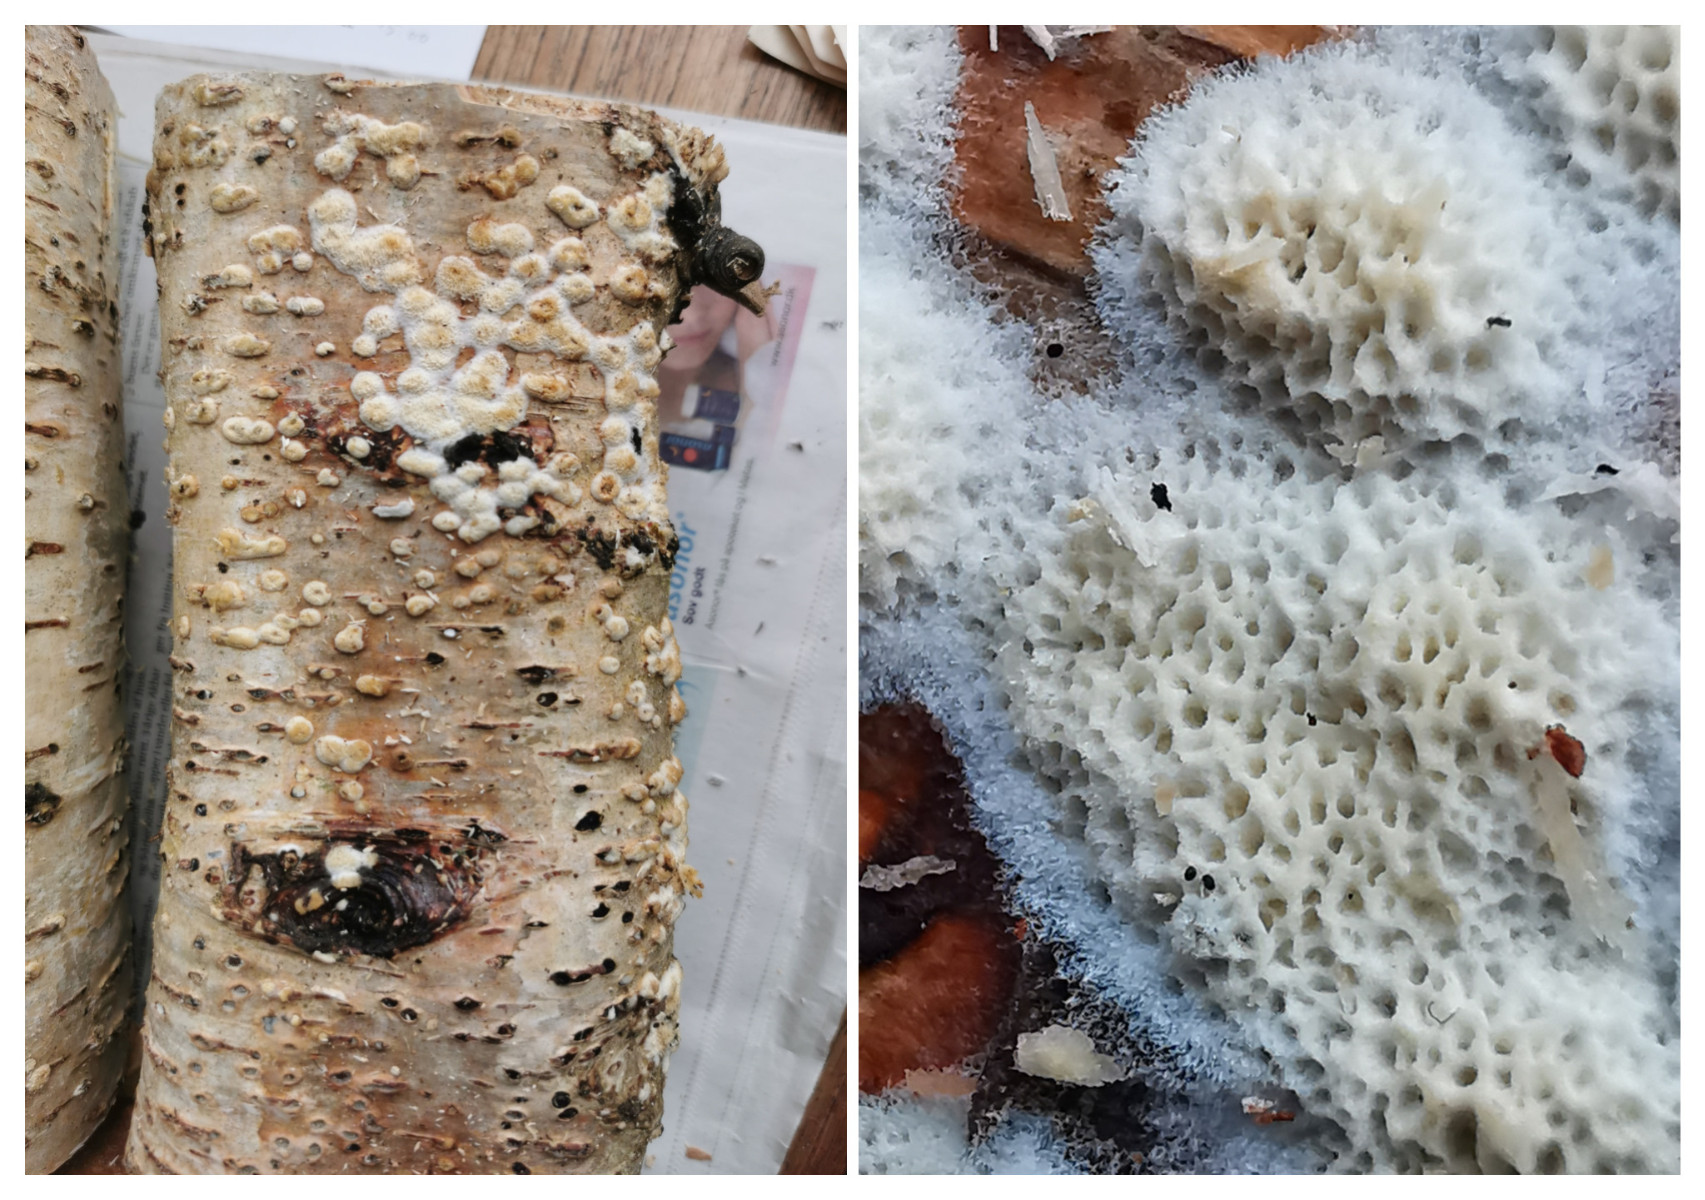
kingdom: Fungi
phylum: Basidiomycota
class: Agaricomycetes
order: Hymenochaetales
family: Schizoporaceae
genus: Xylodon
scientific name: Xylodon
